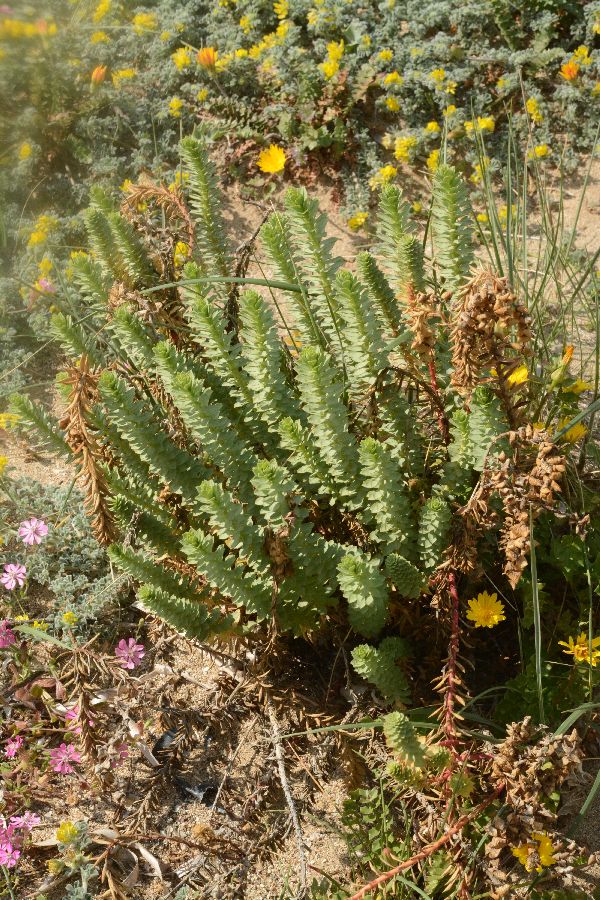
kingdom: Plantae
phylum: Tracheophyta
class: Magnoliopsida
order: Malpighiales
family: Euphorbiaceae
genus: Euphorbia
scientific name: Euphorbia paralias
